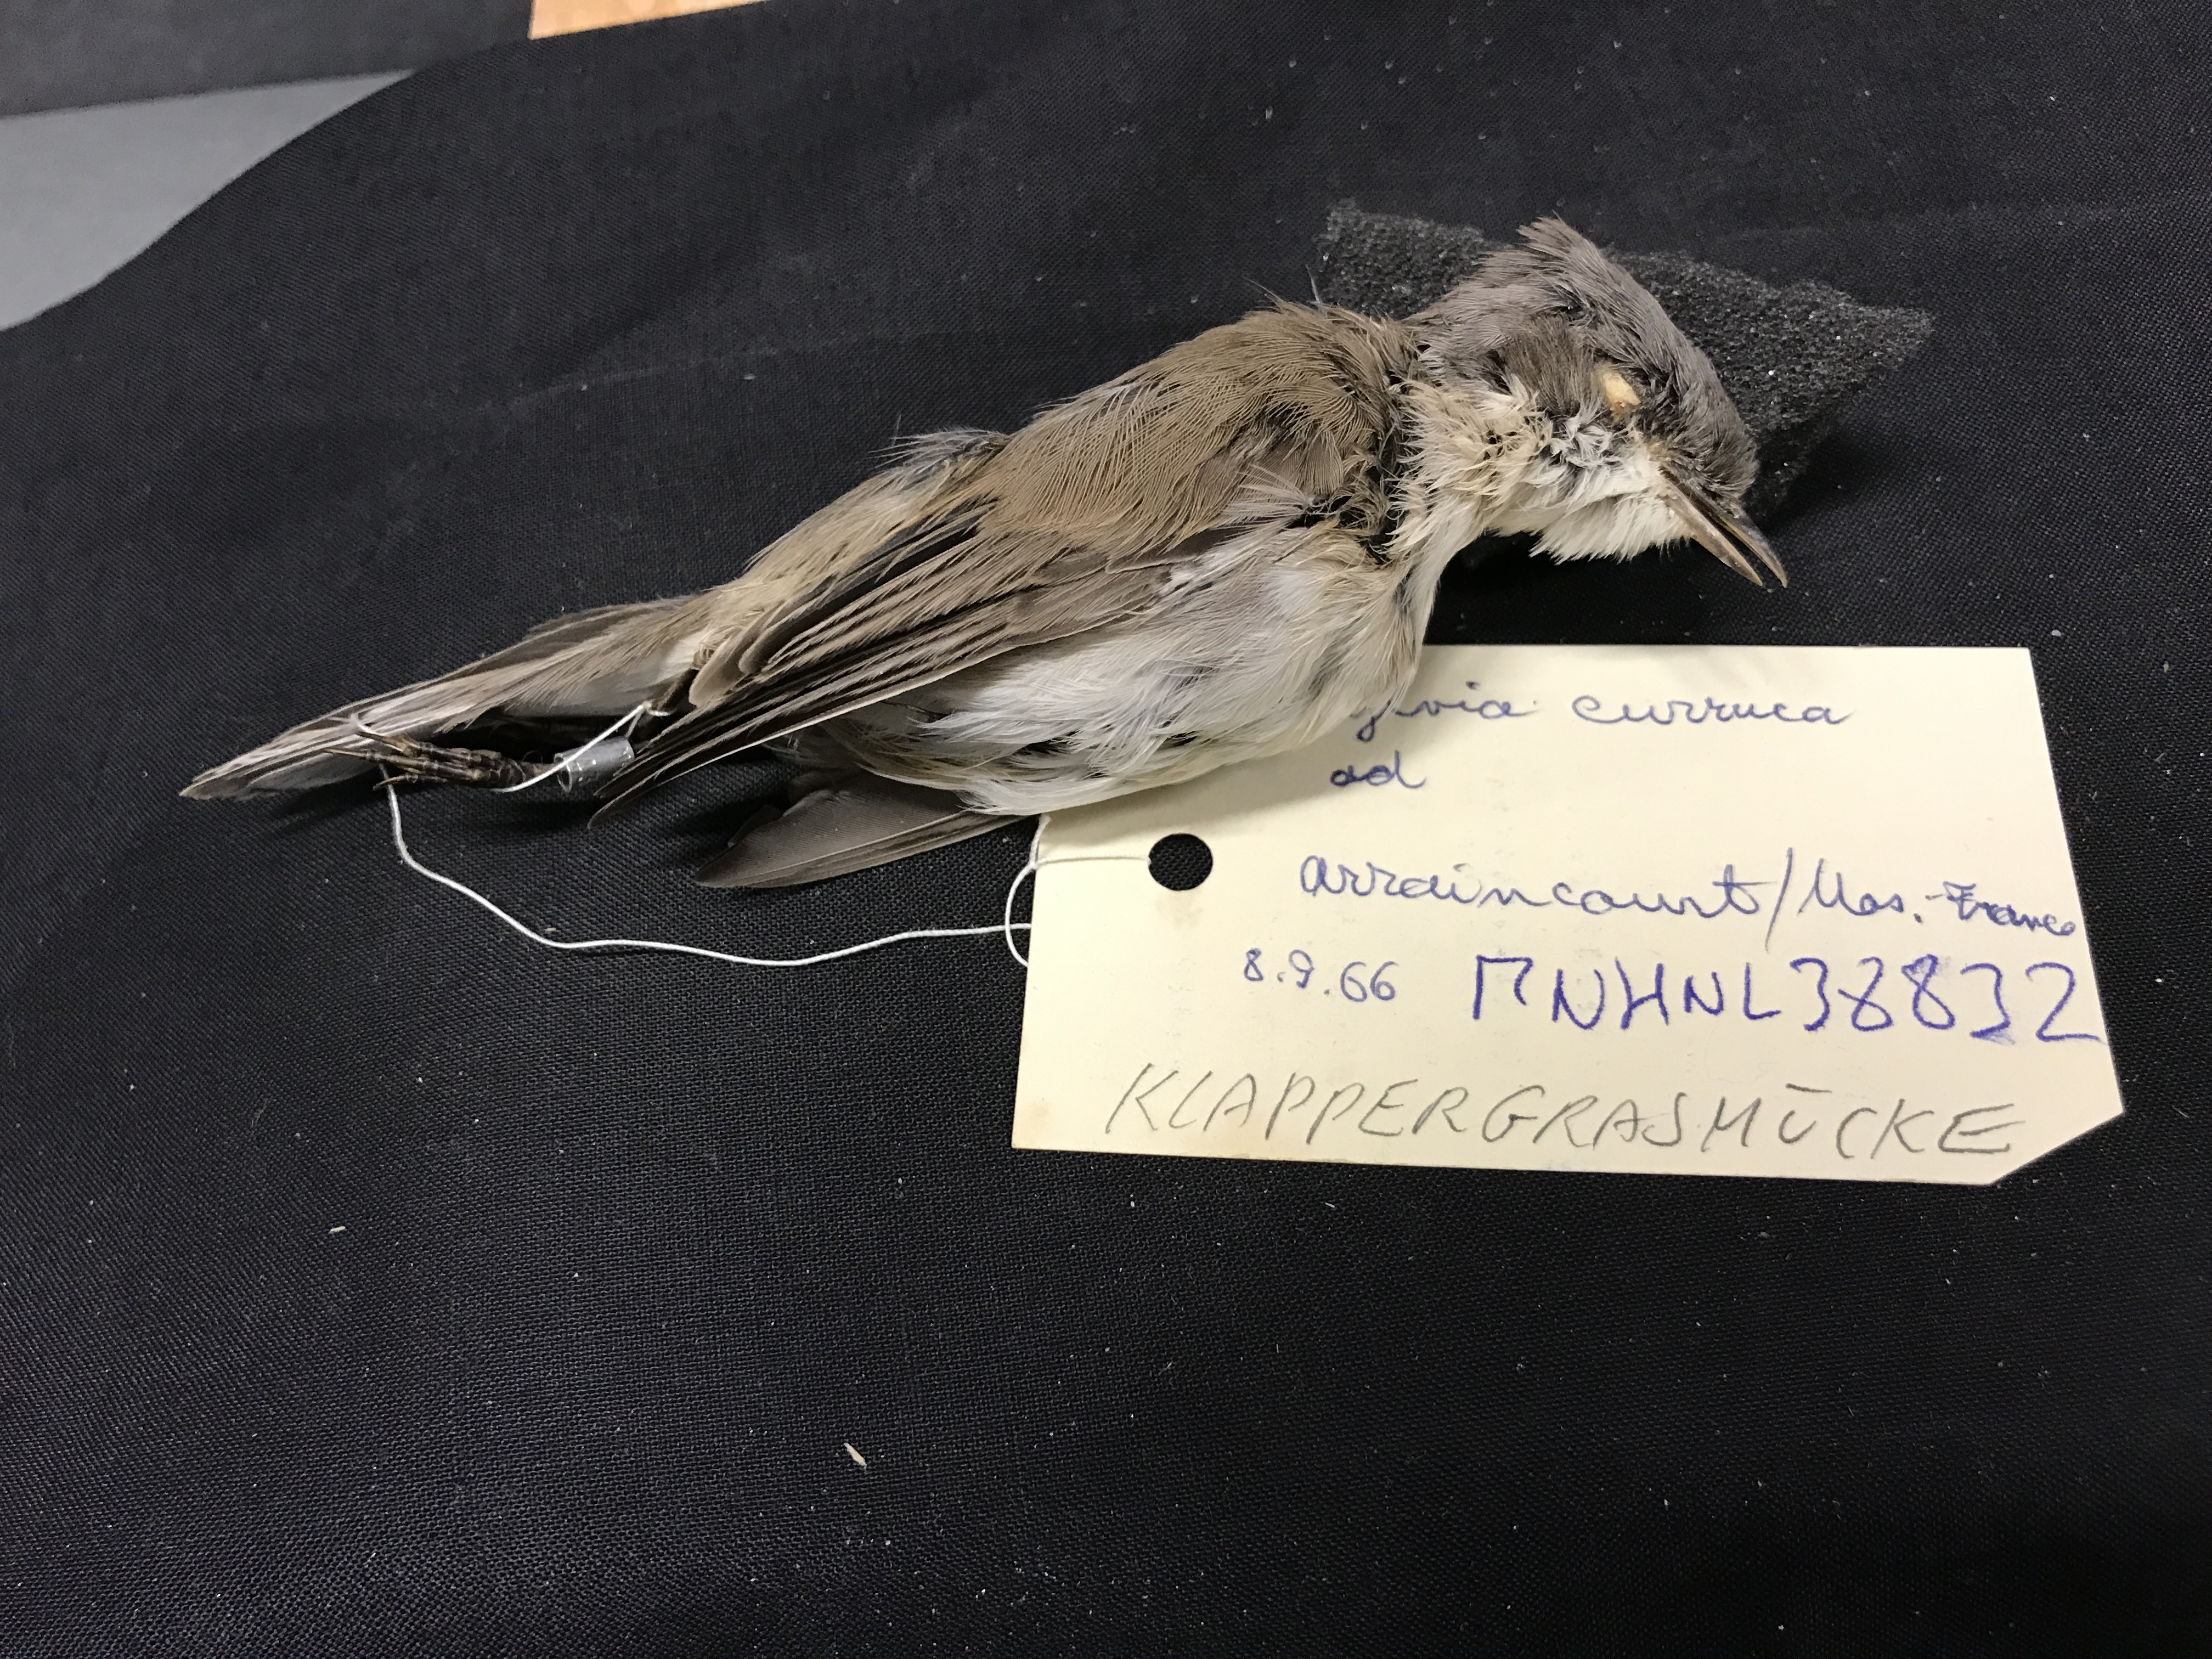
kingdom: Animalia
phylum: Chordata
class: Aves
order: Passeriformes
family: Sylviidae
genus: Sylvia
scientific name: Sylvia curruca
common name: Lesser whitethroat
